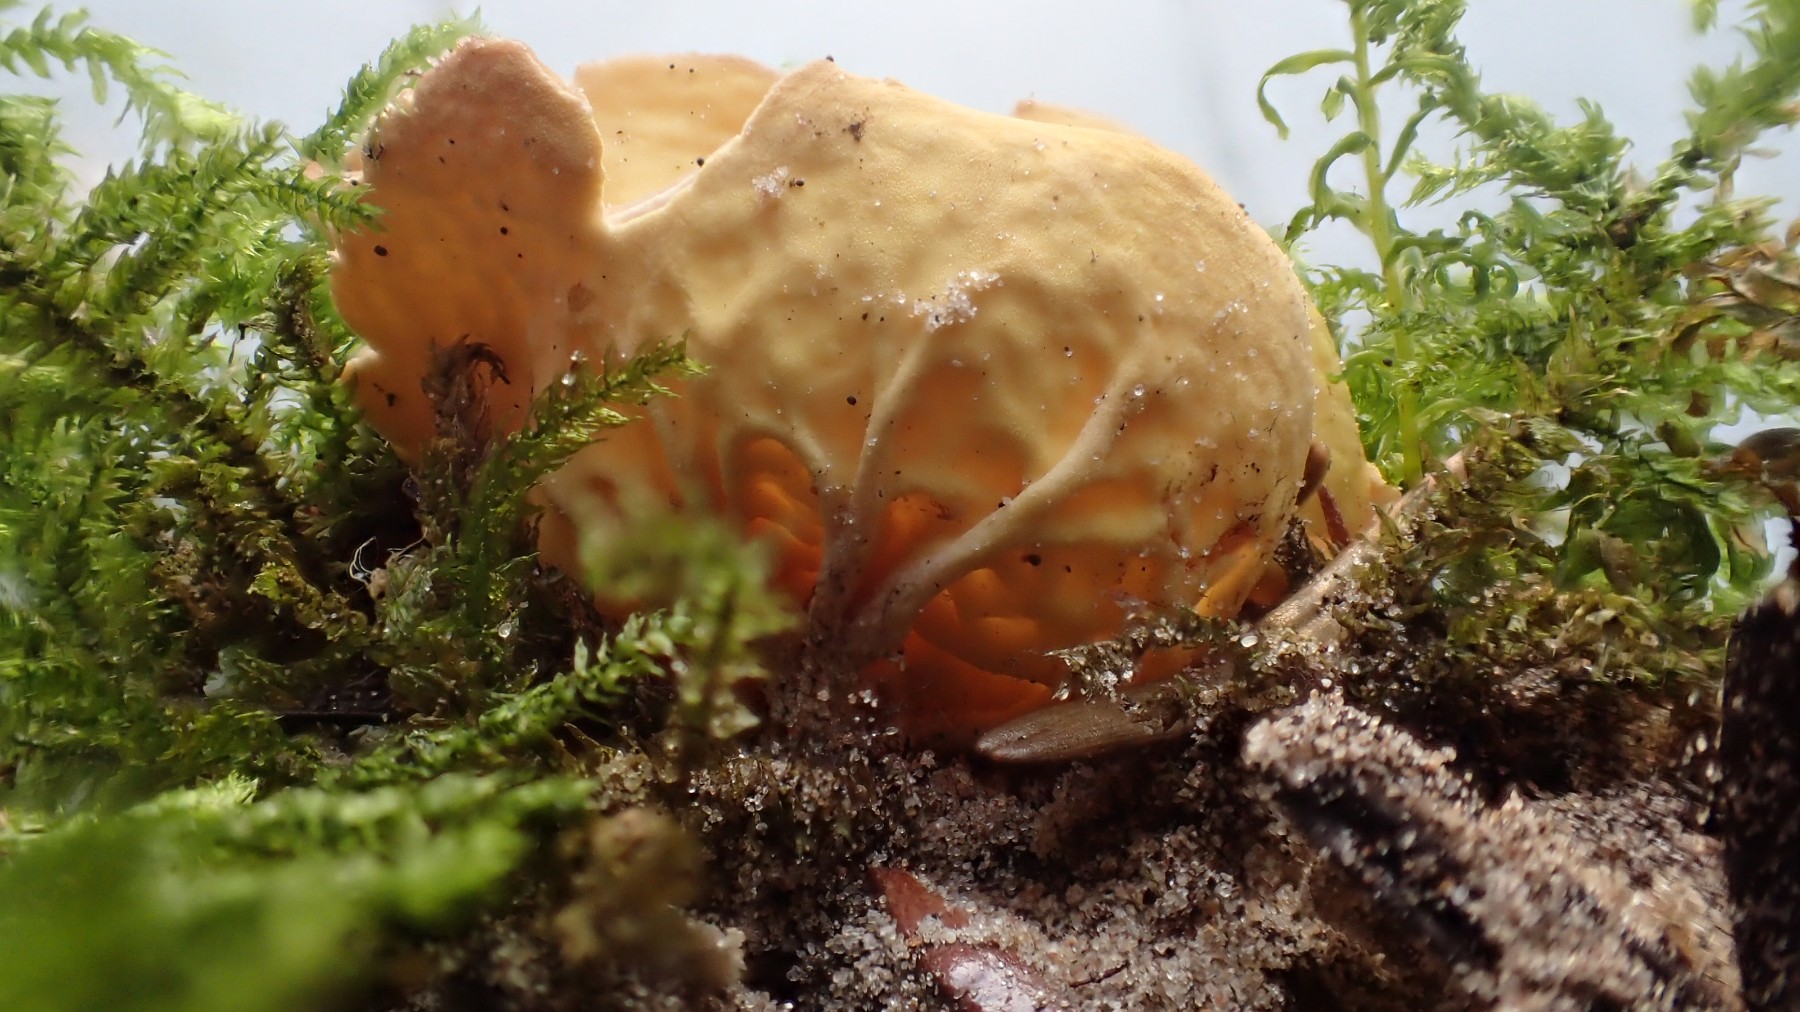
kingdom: Fungi
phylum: Ascomycota
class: Pezizomycetes
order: Pezizales
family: Otideaceae
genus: Otidea
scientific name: Otidea phlebophora
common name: året ørebæger
